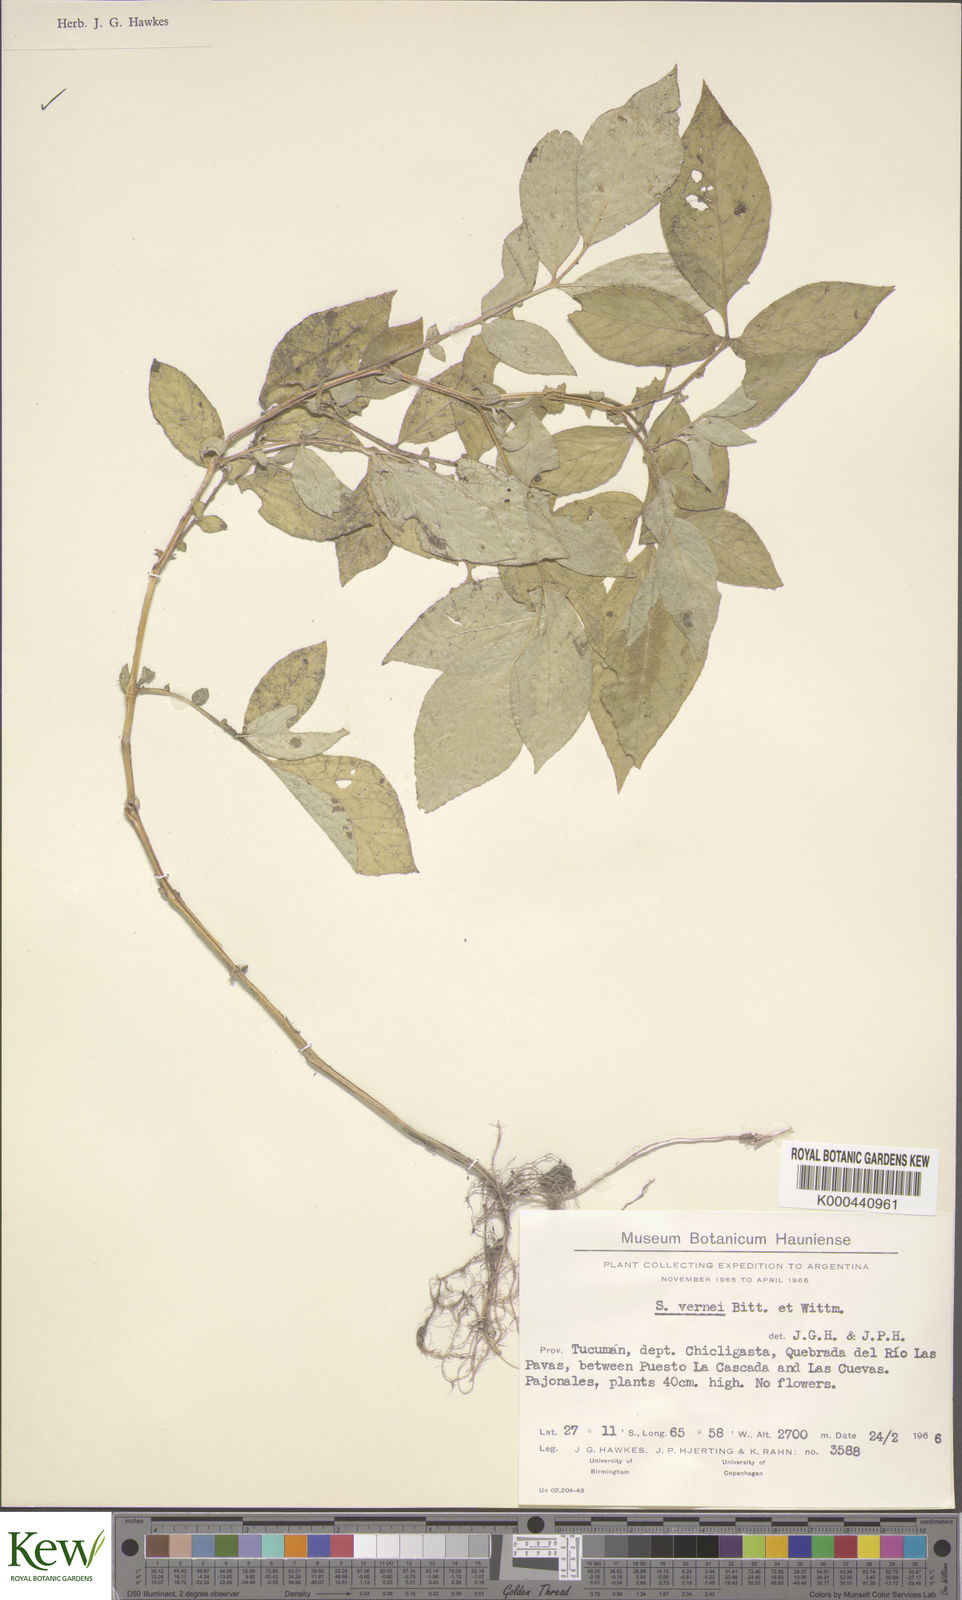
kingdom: Plantae
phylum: Tracheophyta
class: Magnoliopsida
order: Solanales
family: Solanaceae
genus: Solanum
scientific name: Solanum vernei
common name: Purple potato
